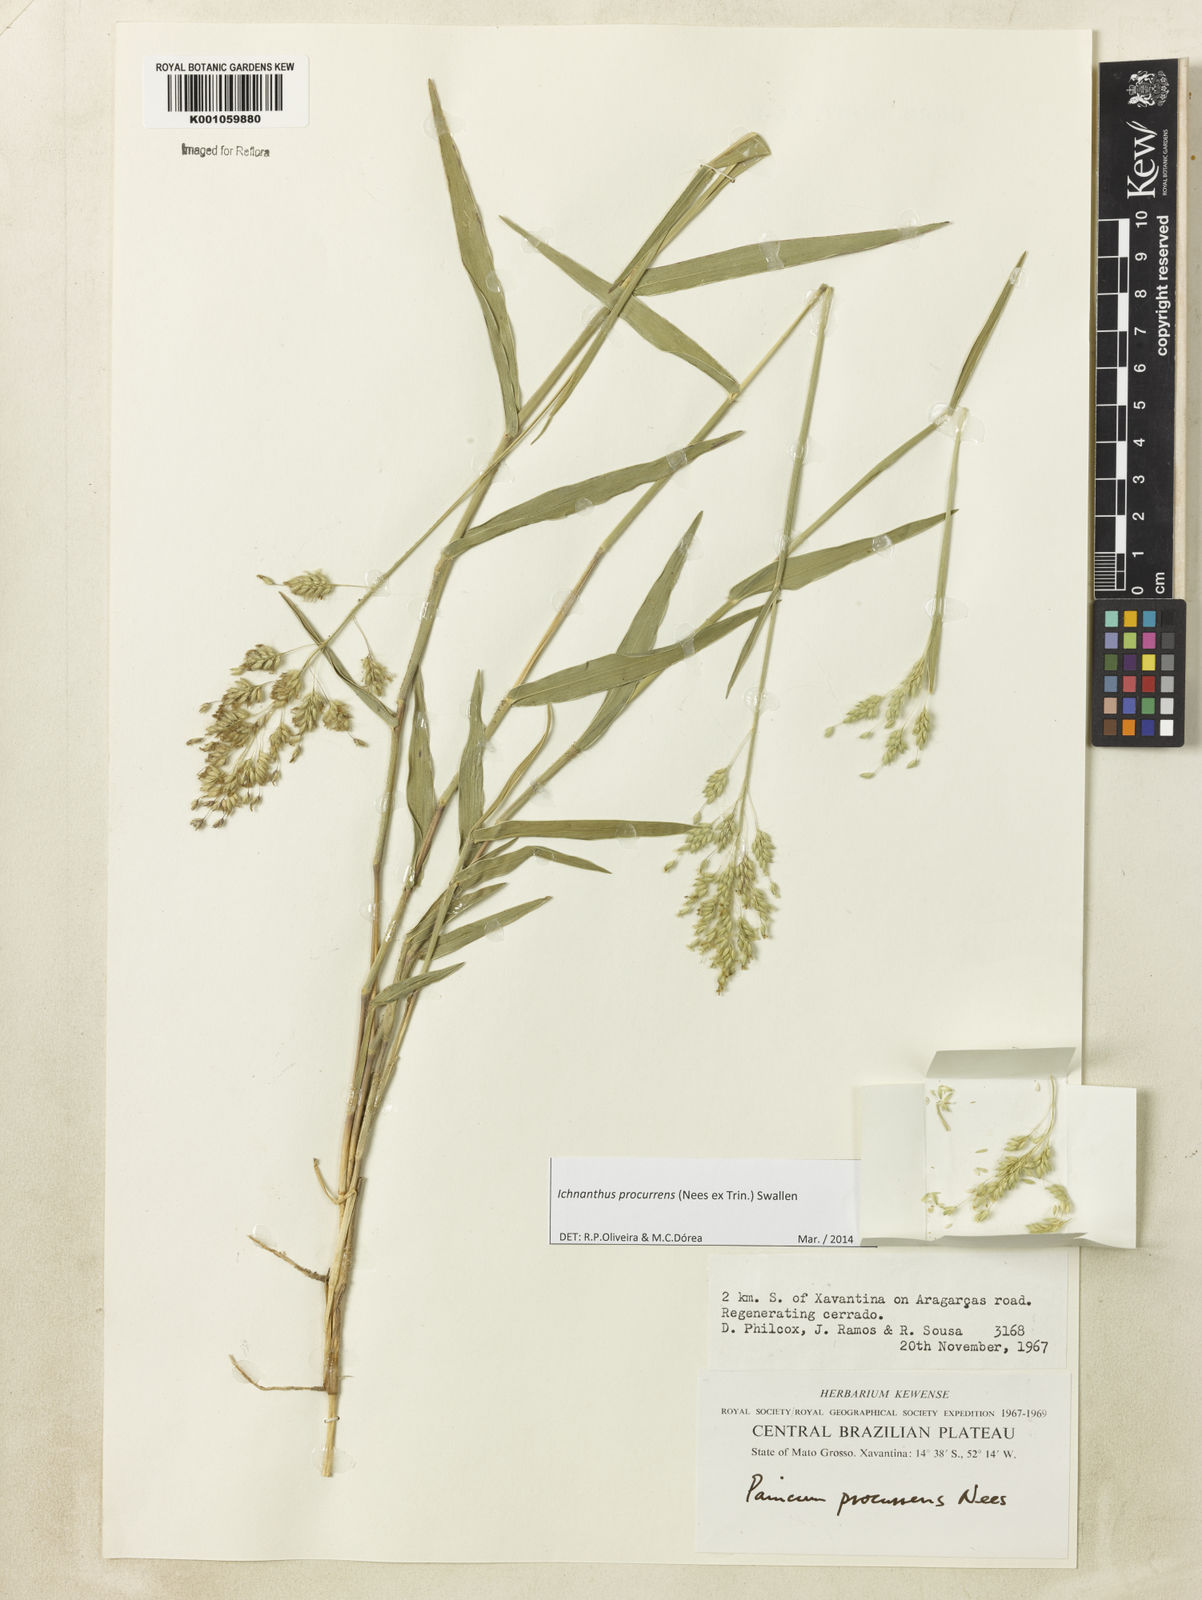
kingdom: Plantae
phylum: Tracheophyta
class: Liliopsida
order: Poales
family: Poaceae
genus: Oedochloa
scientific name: Oedochloa procurrens
